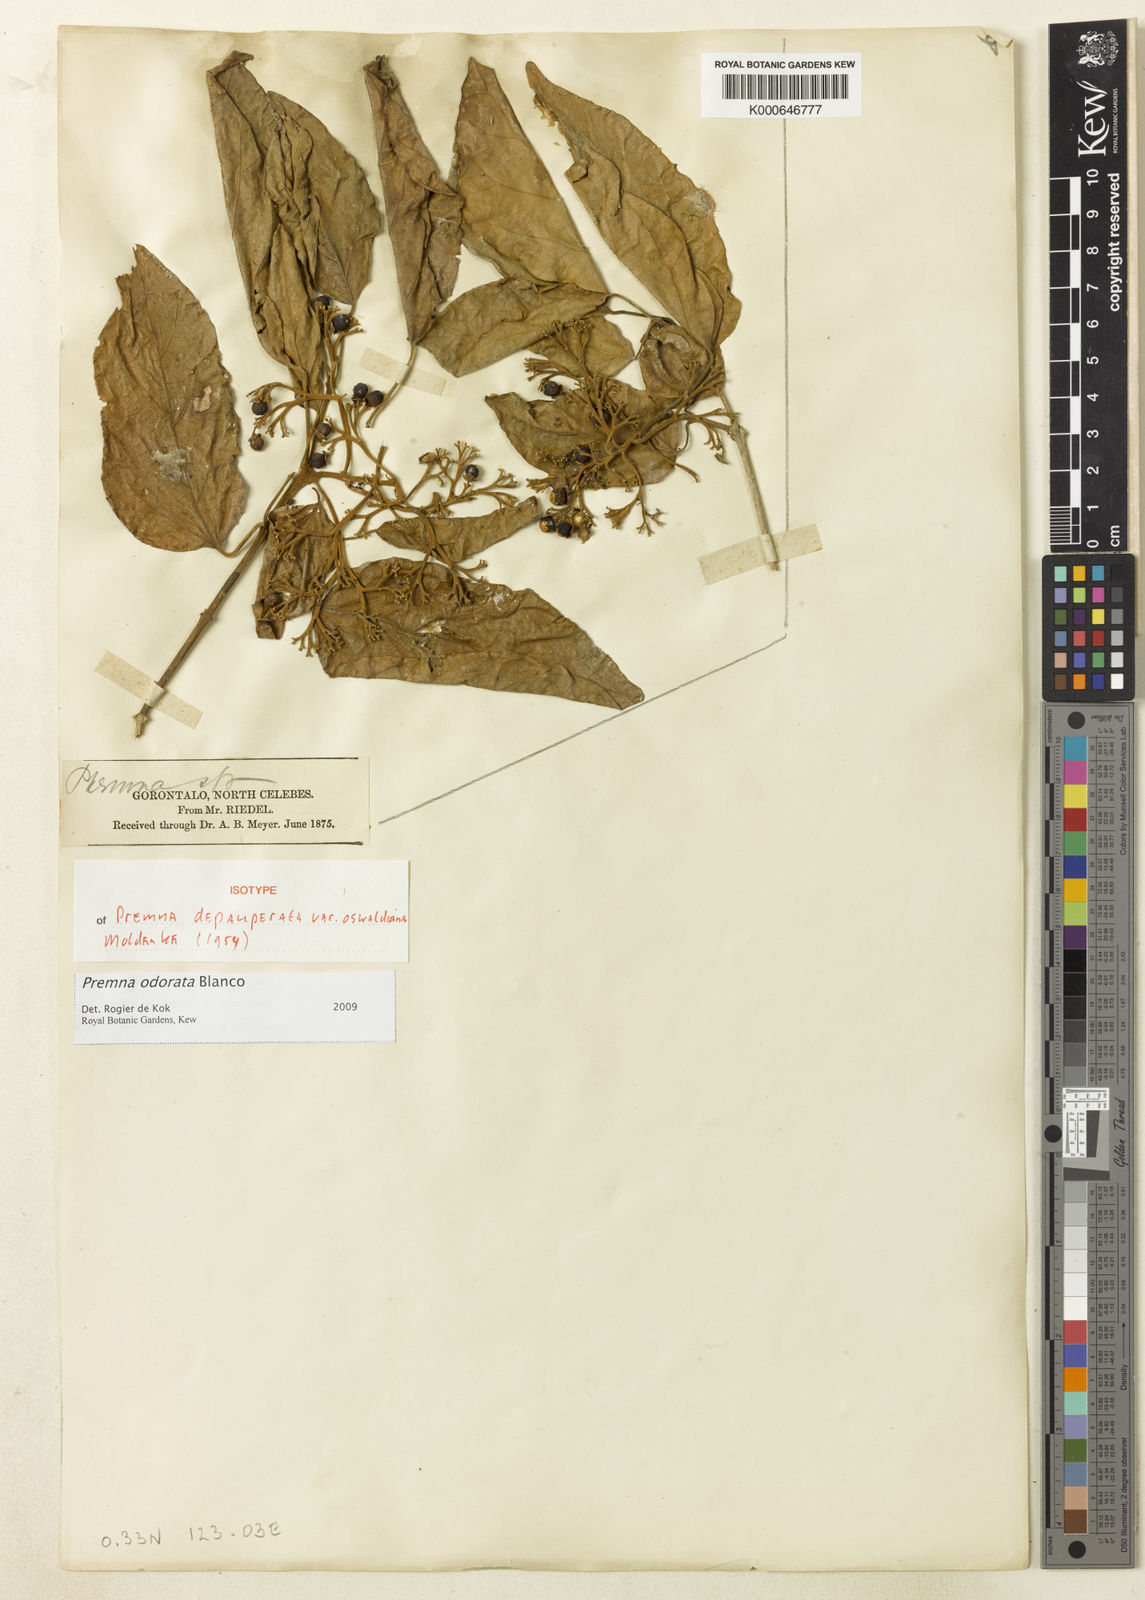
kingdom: Plantae
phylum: Tracheophyta
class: Magnoliopsida
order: Lamiales
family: Lamiaceae
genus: Premna
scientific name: Premna odorata
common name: Fragrant premna
